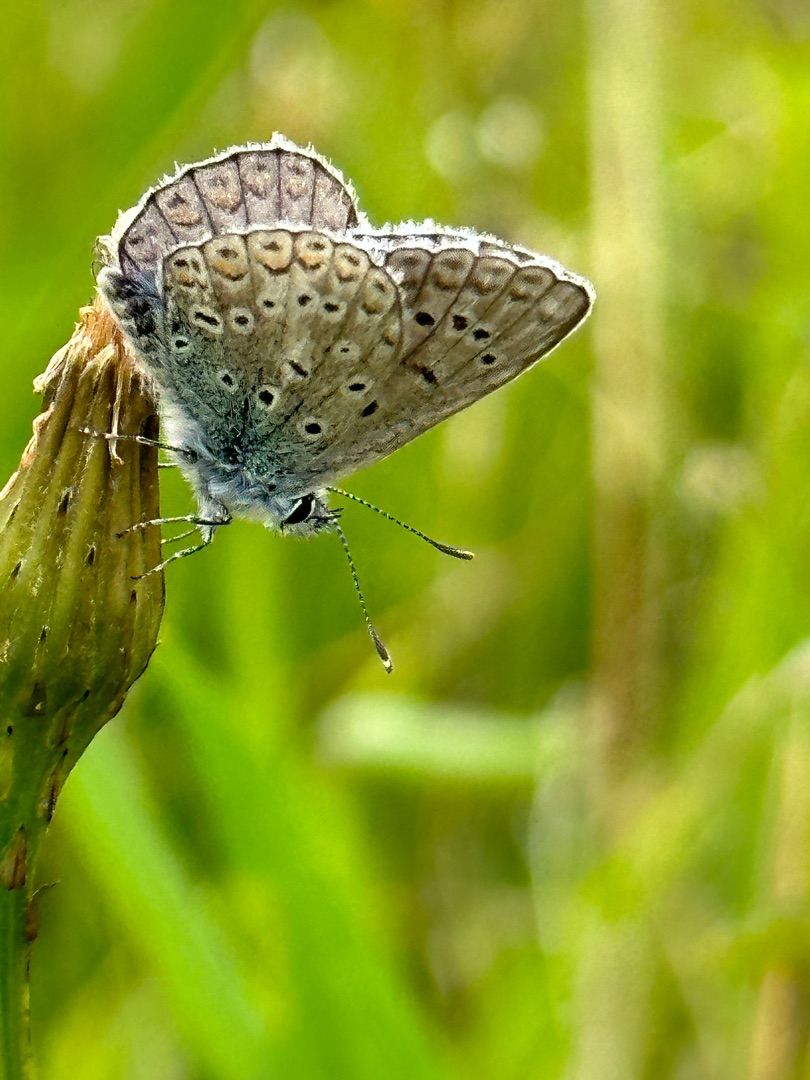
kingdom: Animalia
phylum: Arthropoda
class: Insecta
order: Lepidoptera
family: Lycaenidae
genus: Polyommatus
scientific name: Polyommatus icarus
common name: Almindelig blåfugl
